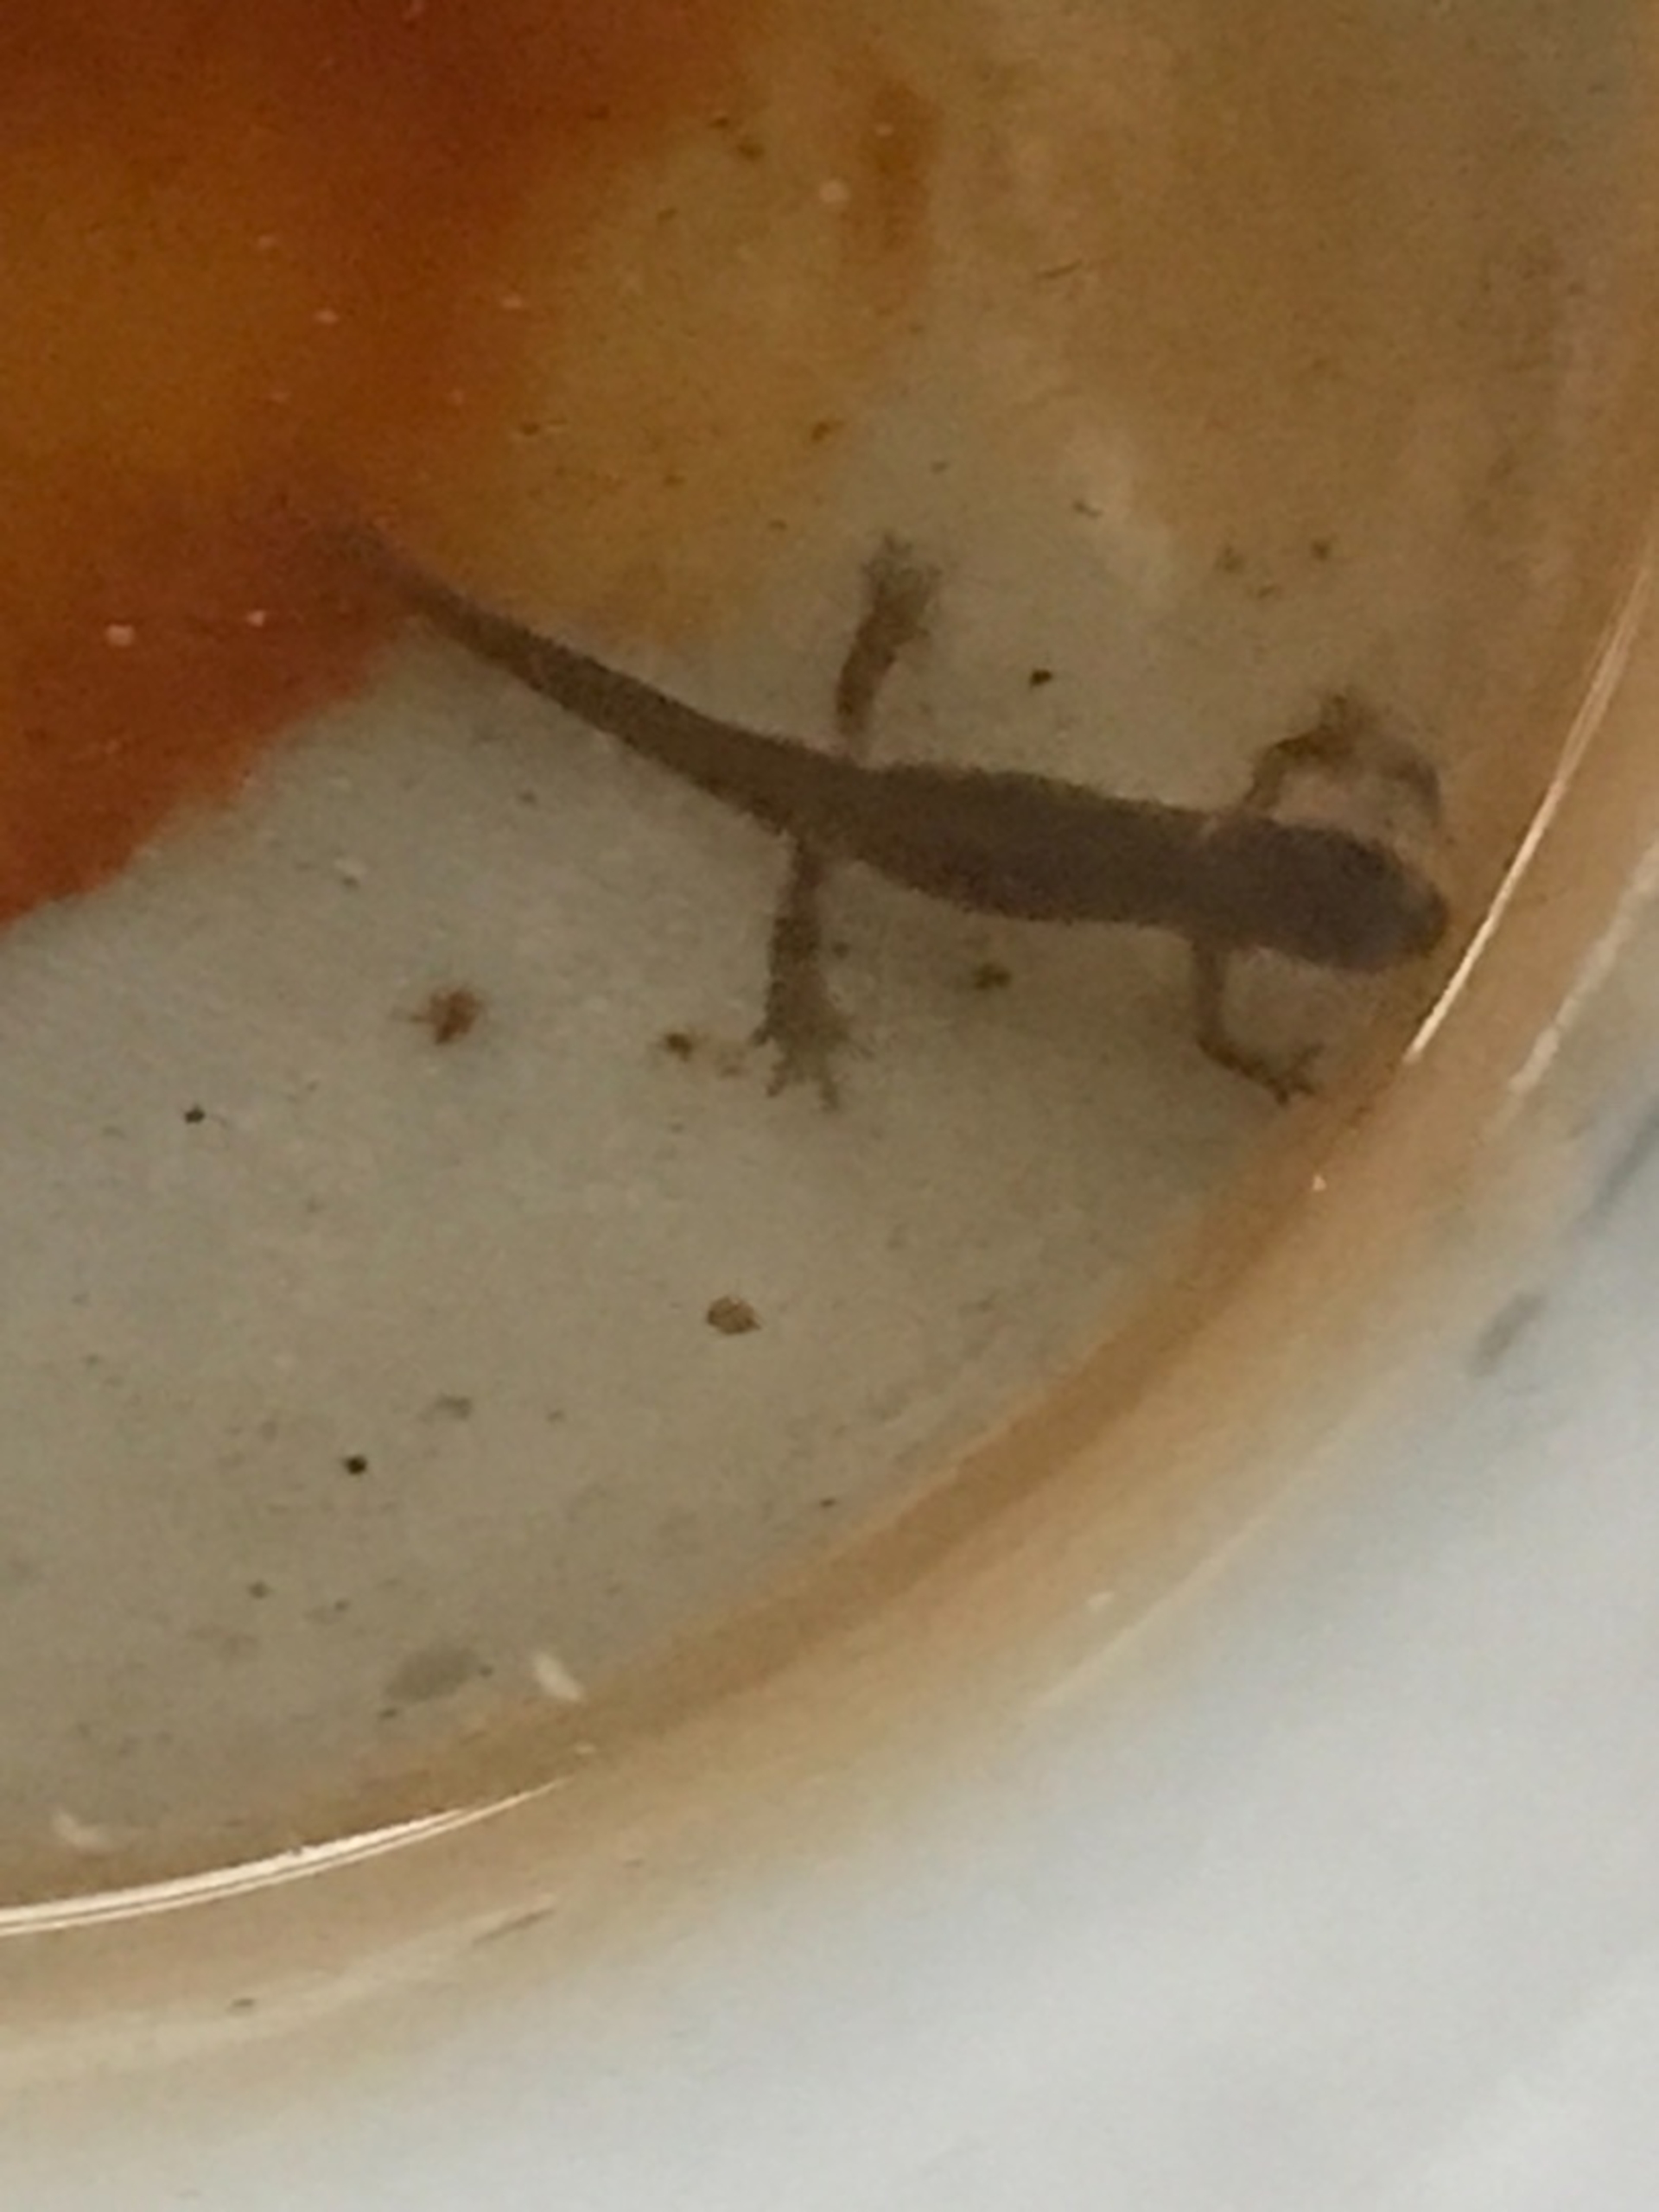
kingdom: Animalia
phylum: Chordata
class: Amphibia
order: Caudata
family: Salamandridae
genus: Lissotriton
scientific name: Lissotriton vulgaris
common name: Lille vandsalamander
